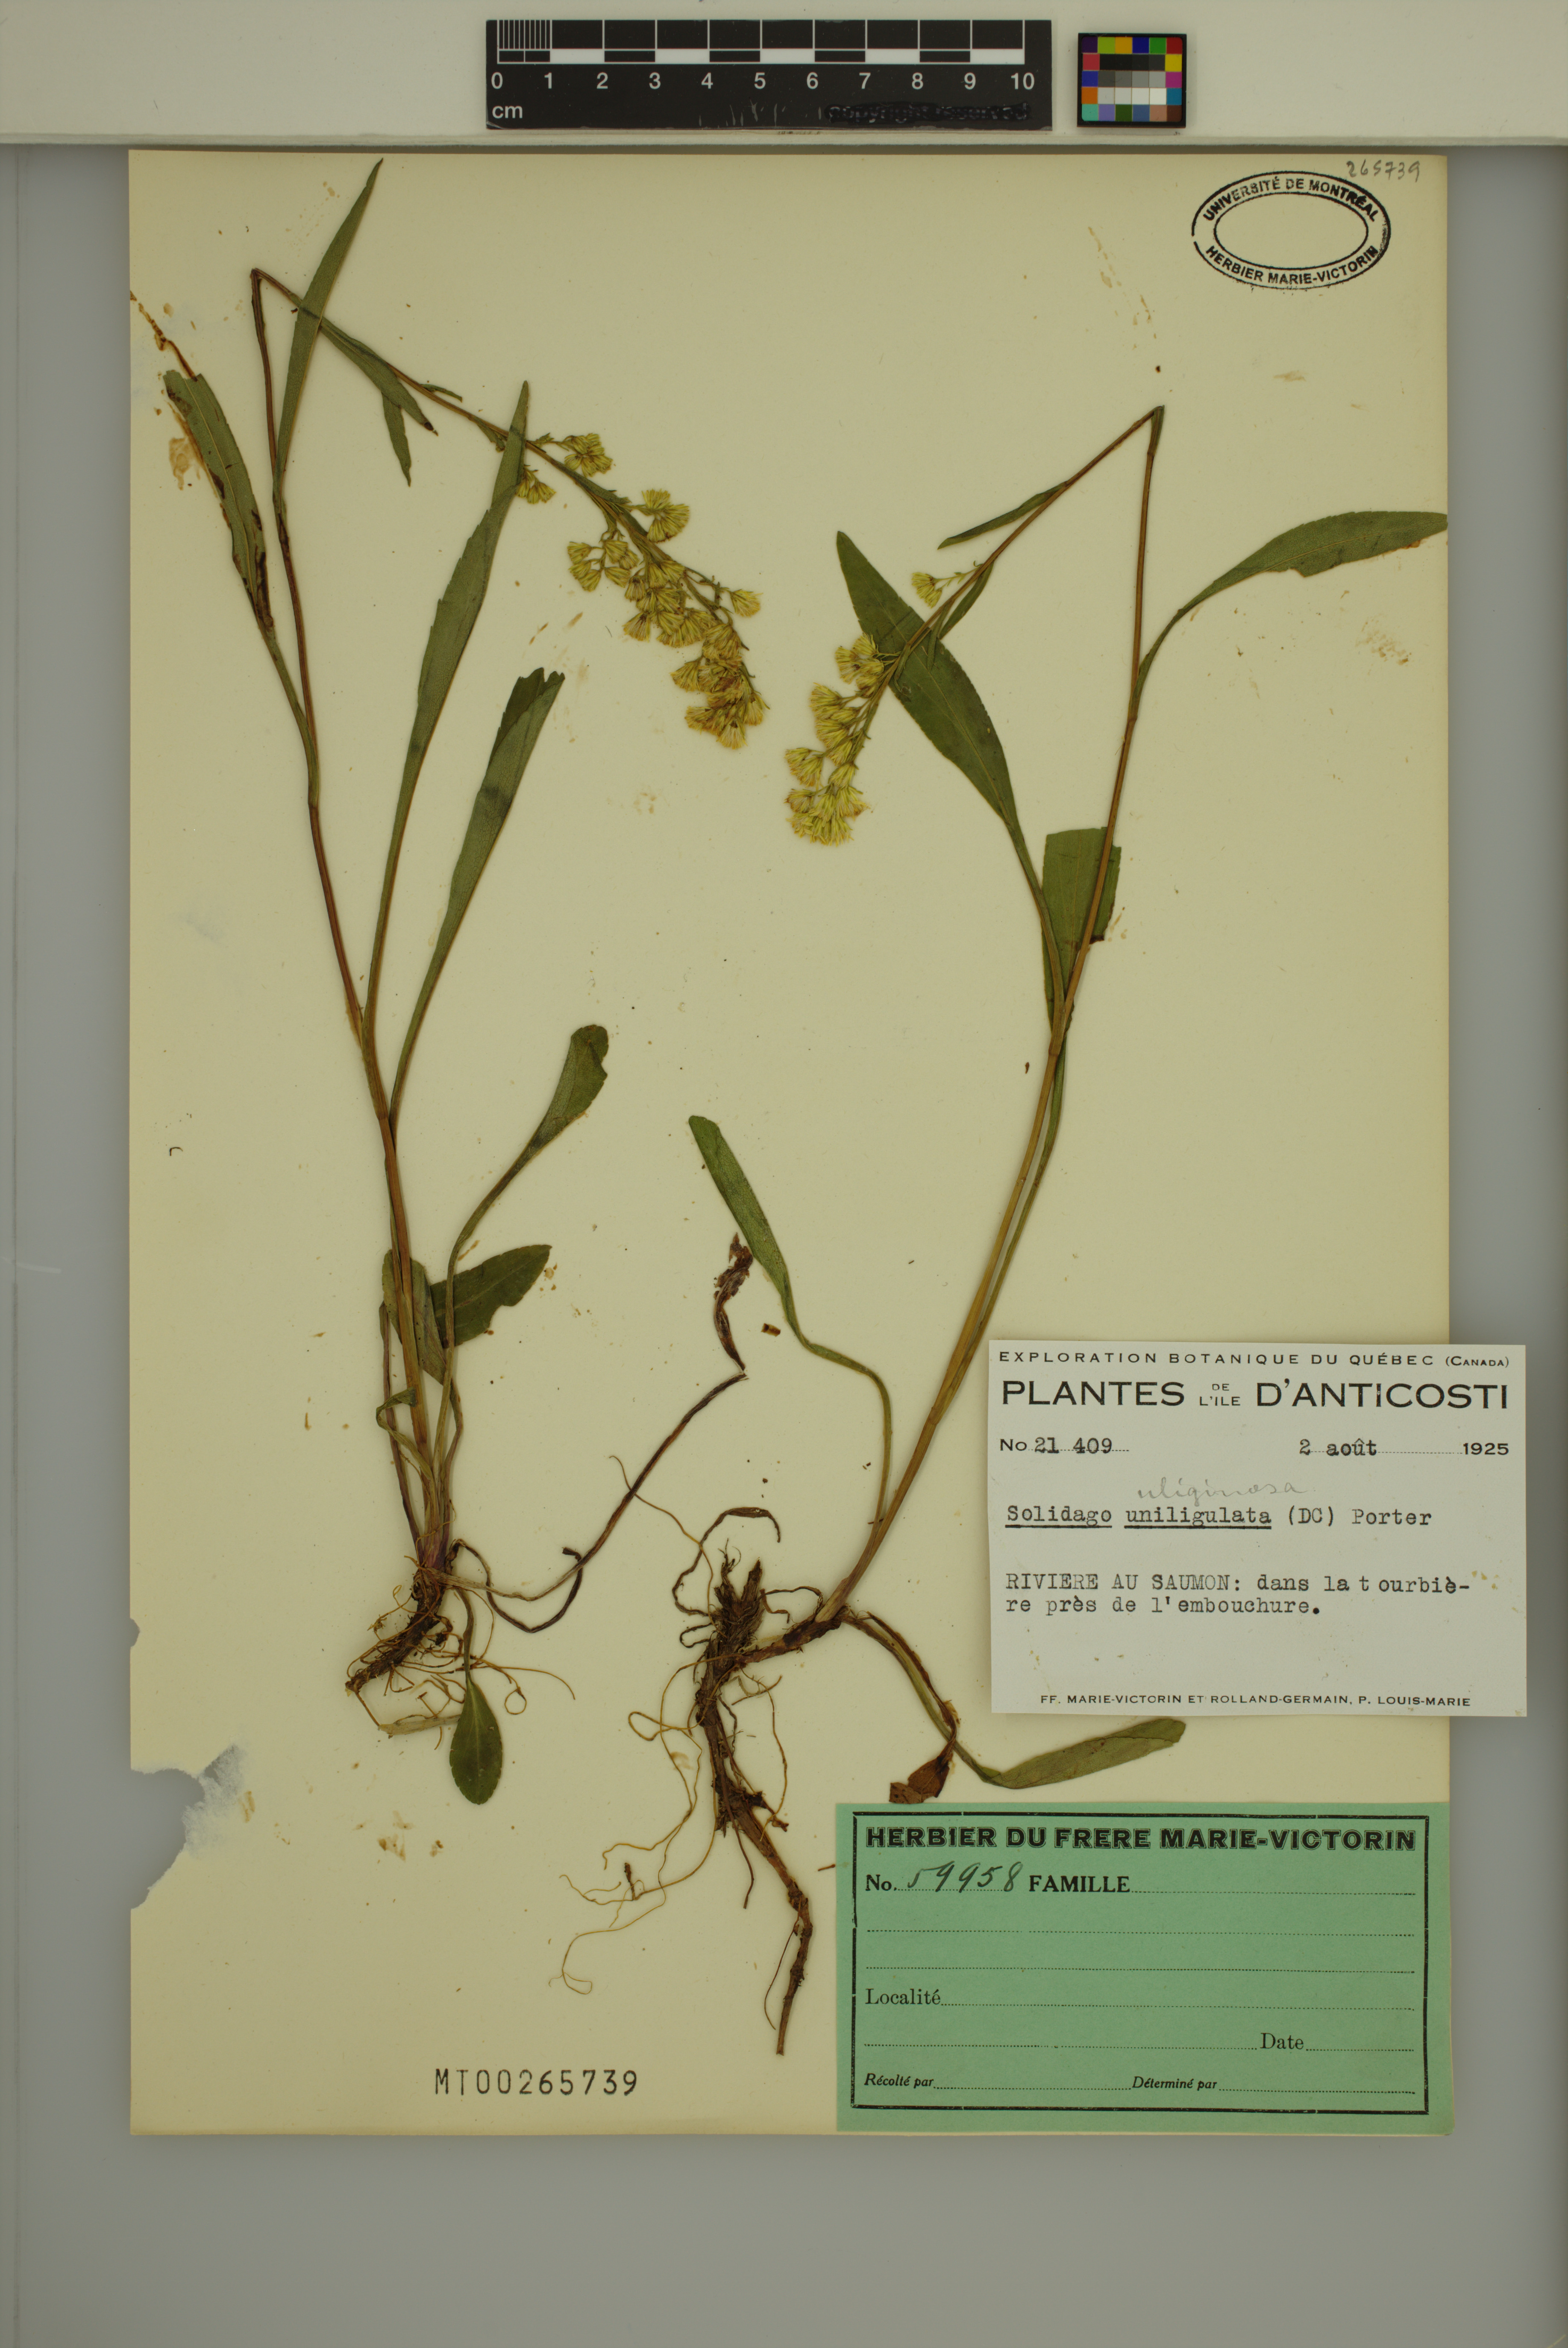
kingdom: Plantae
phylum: Tracheophyta
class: Magnoliopsida
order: Asterales
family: Asteraceae
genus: Solidago
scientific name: Solidago uliginosa
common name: Bog goldenrod
